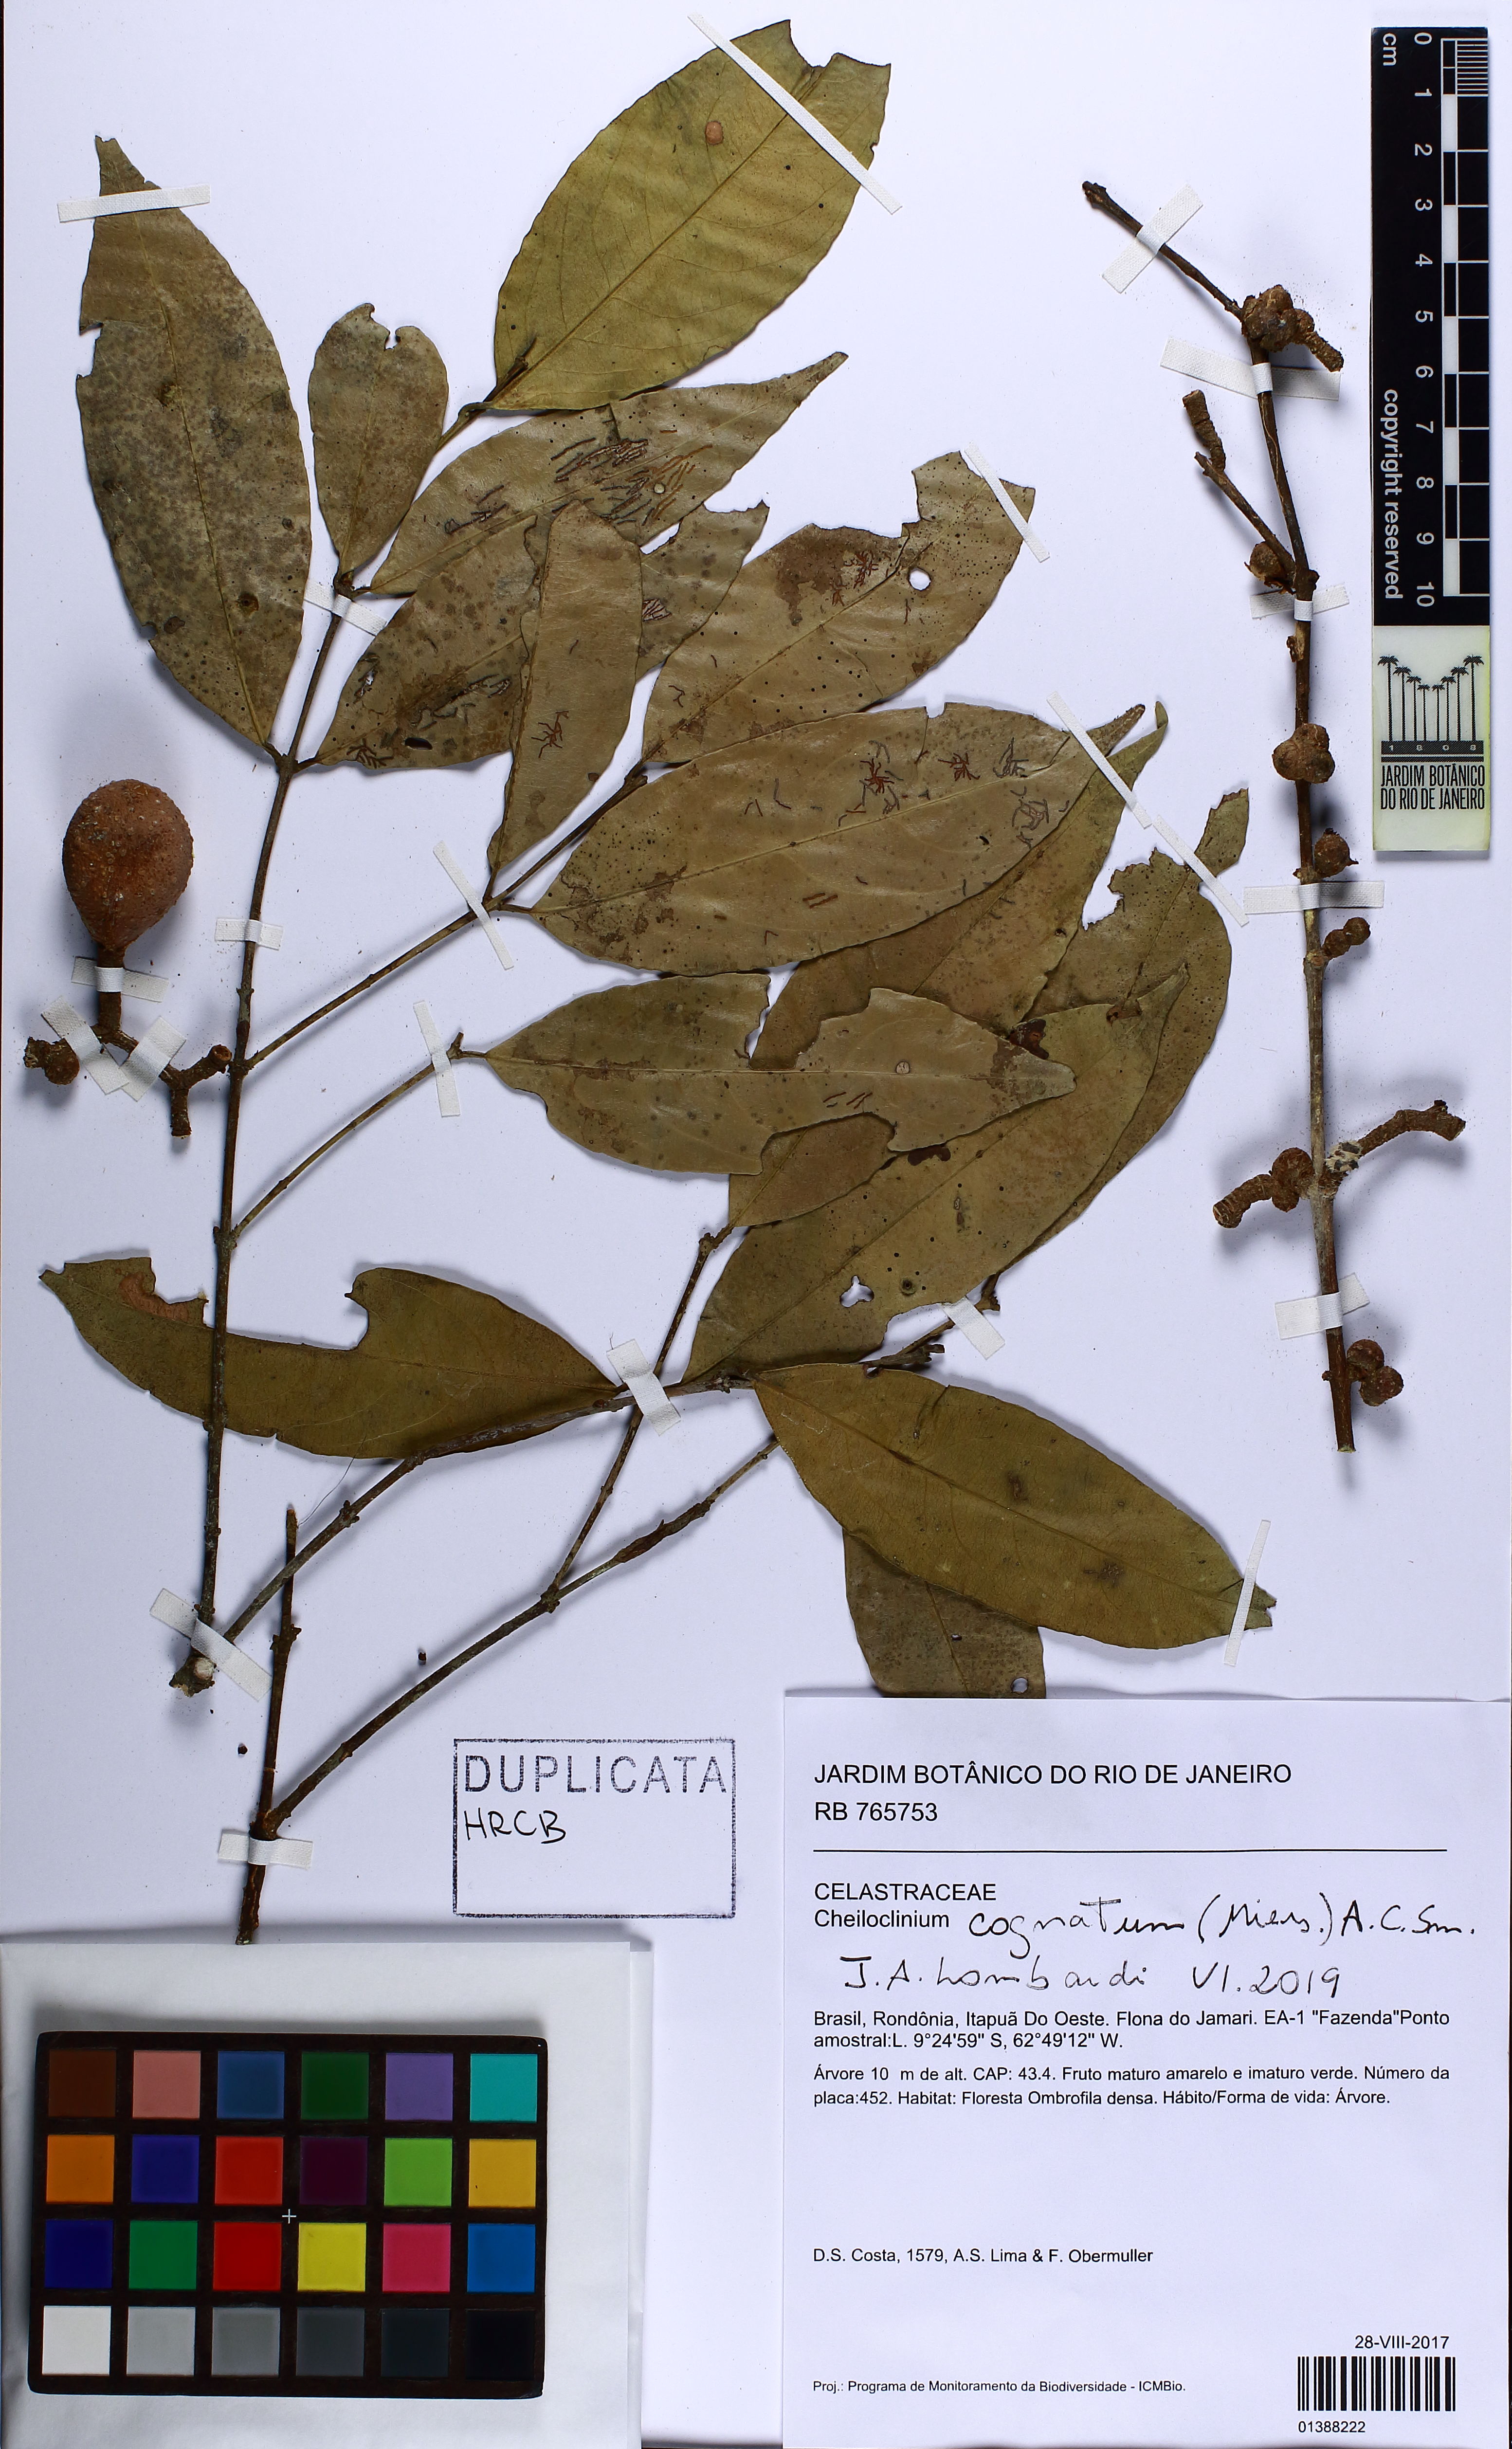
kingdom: Plantae
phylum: Tracheophyta
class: Magnoliopsida
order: Celastrales
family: Celastraceae
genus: Cheiloclinium
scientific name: Cheiloclinium cognatum
